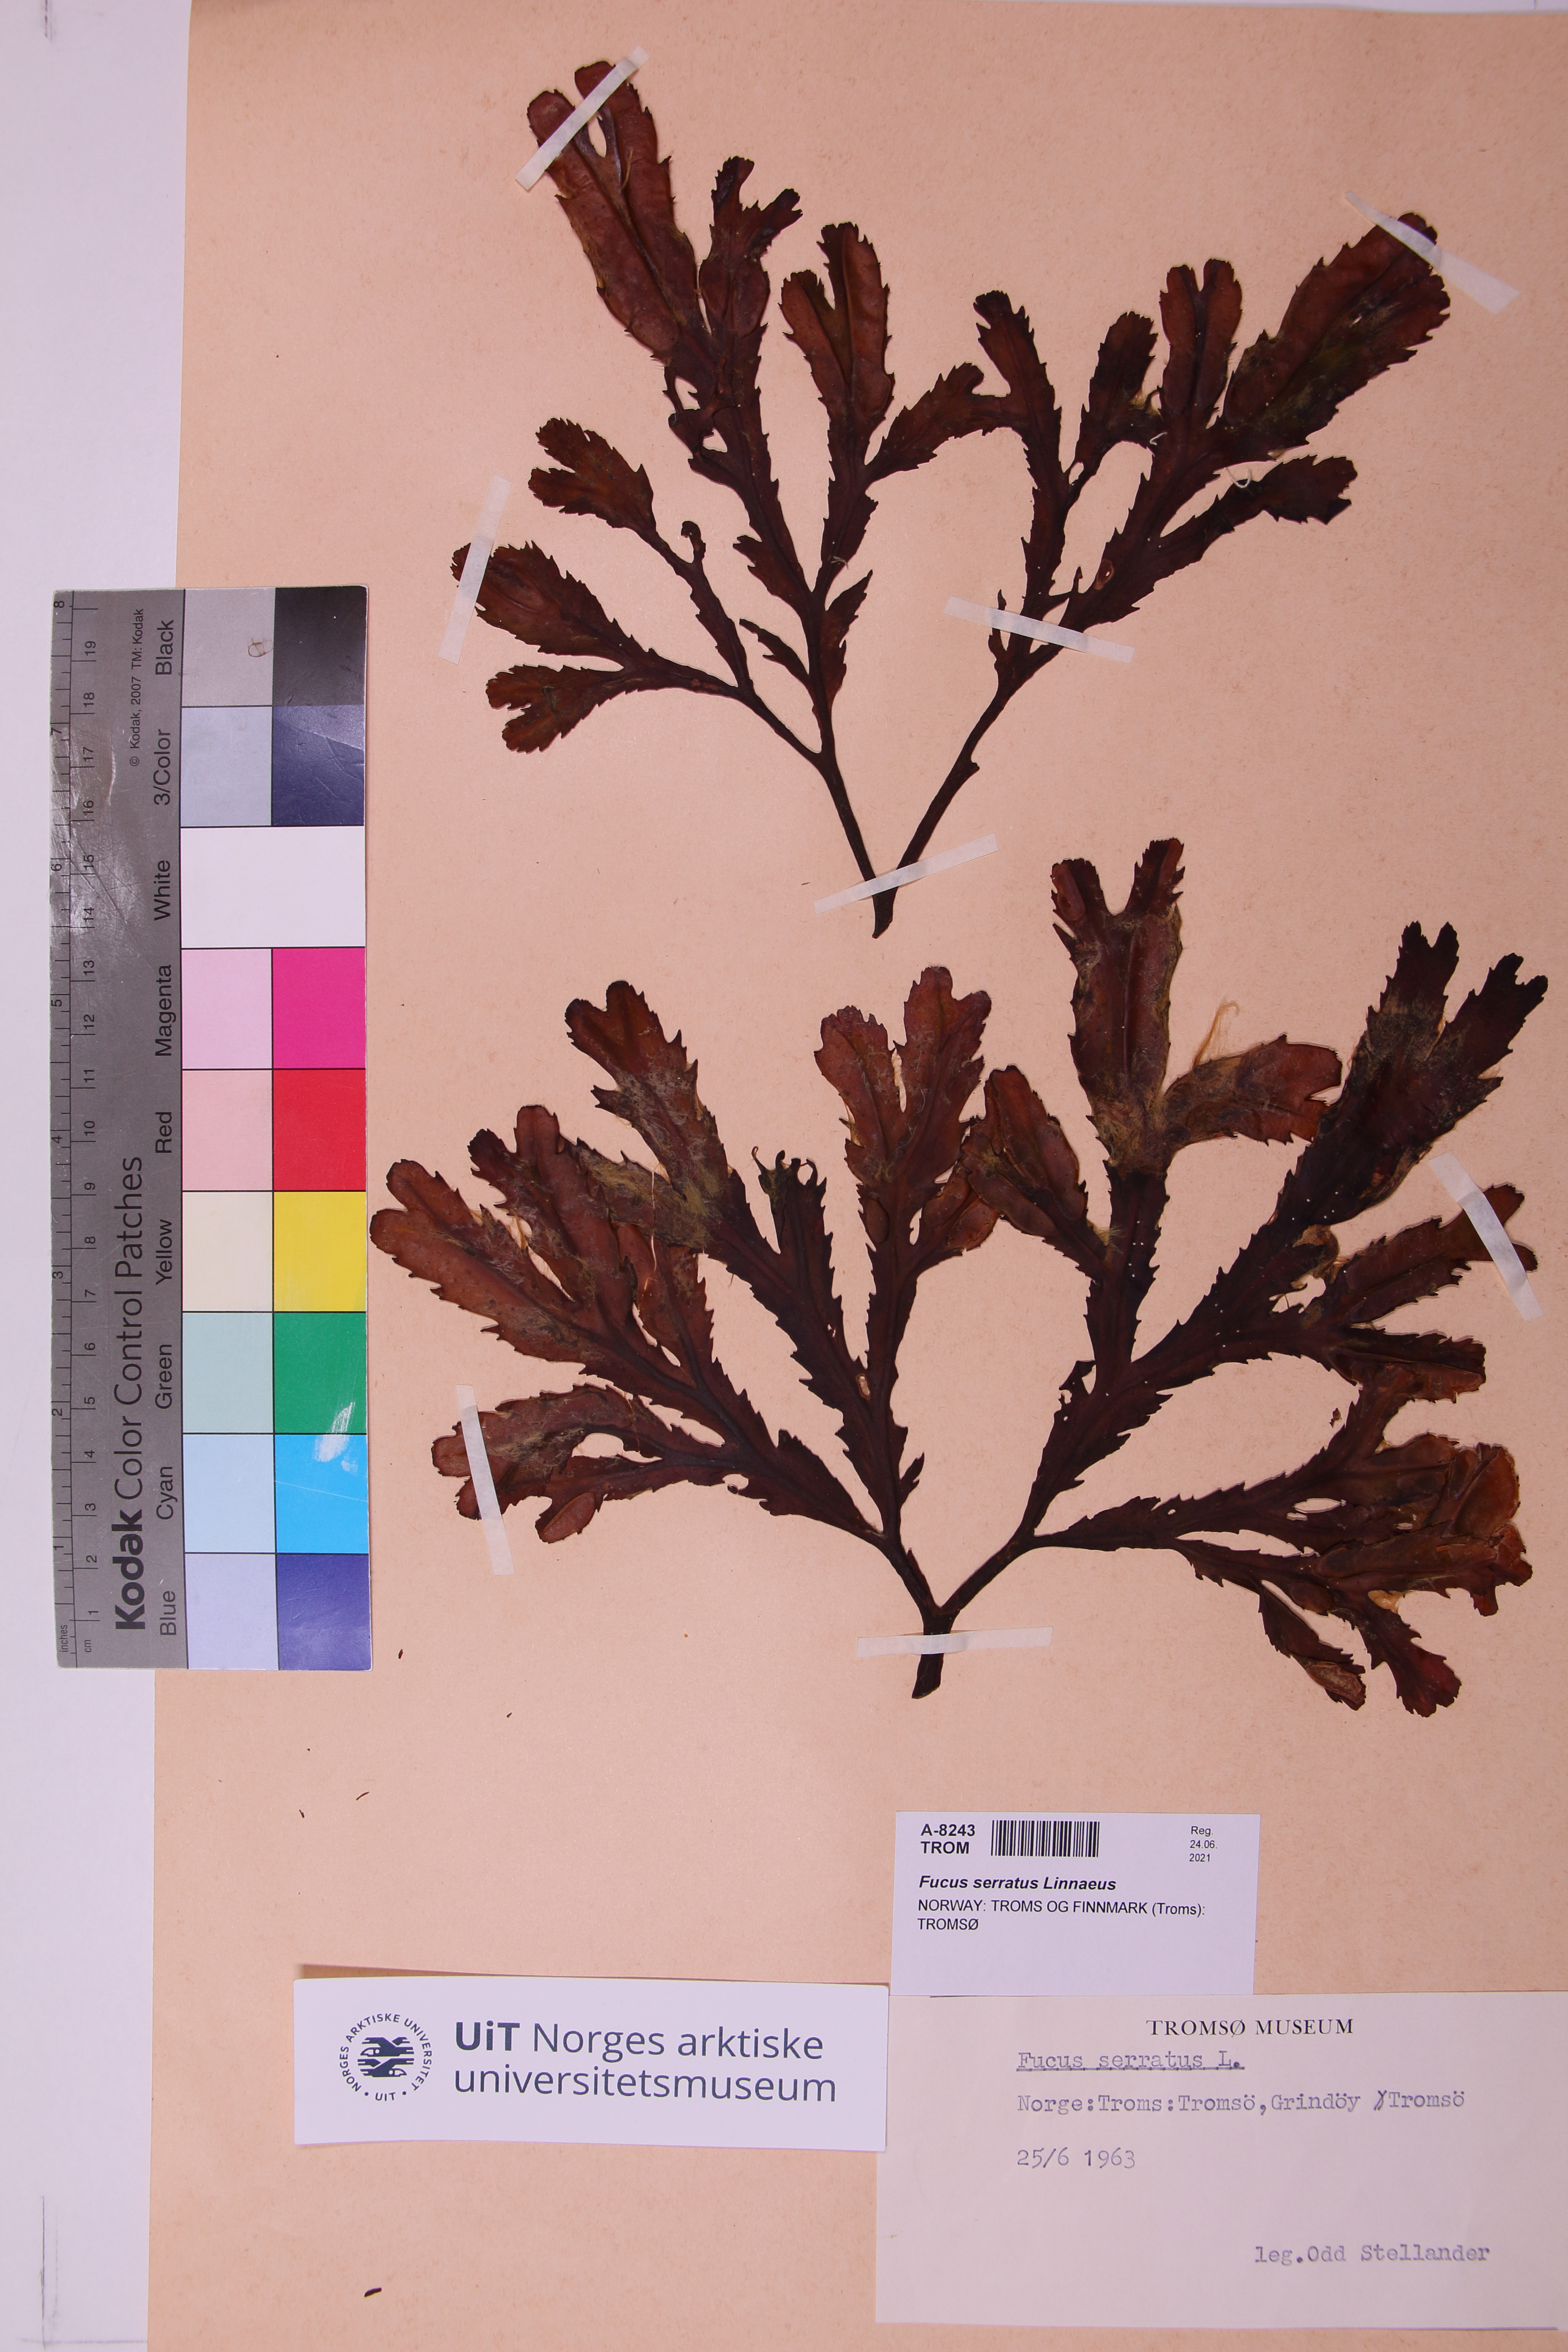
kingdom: Chromista
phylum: Ochrophyta
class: Phaeophyceae
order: Fucales
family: Fucaceae
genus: Fucus
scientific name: Fucus serratus
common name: Toothed wrack
